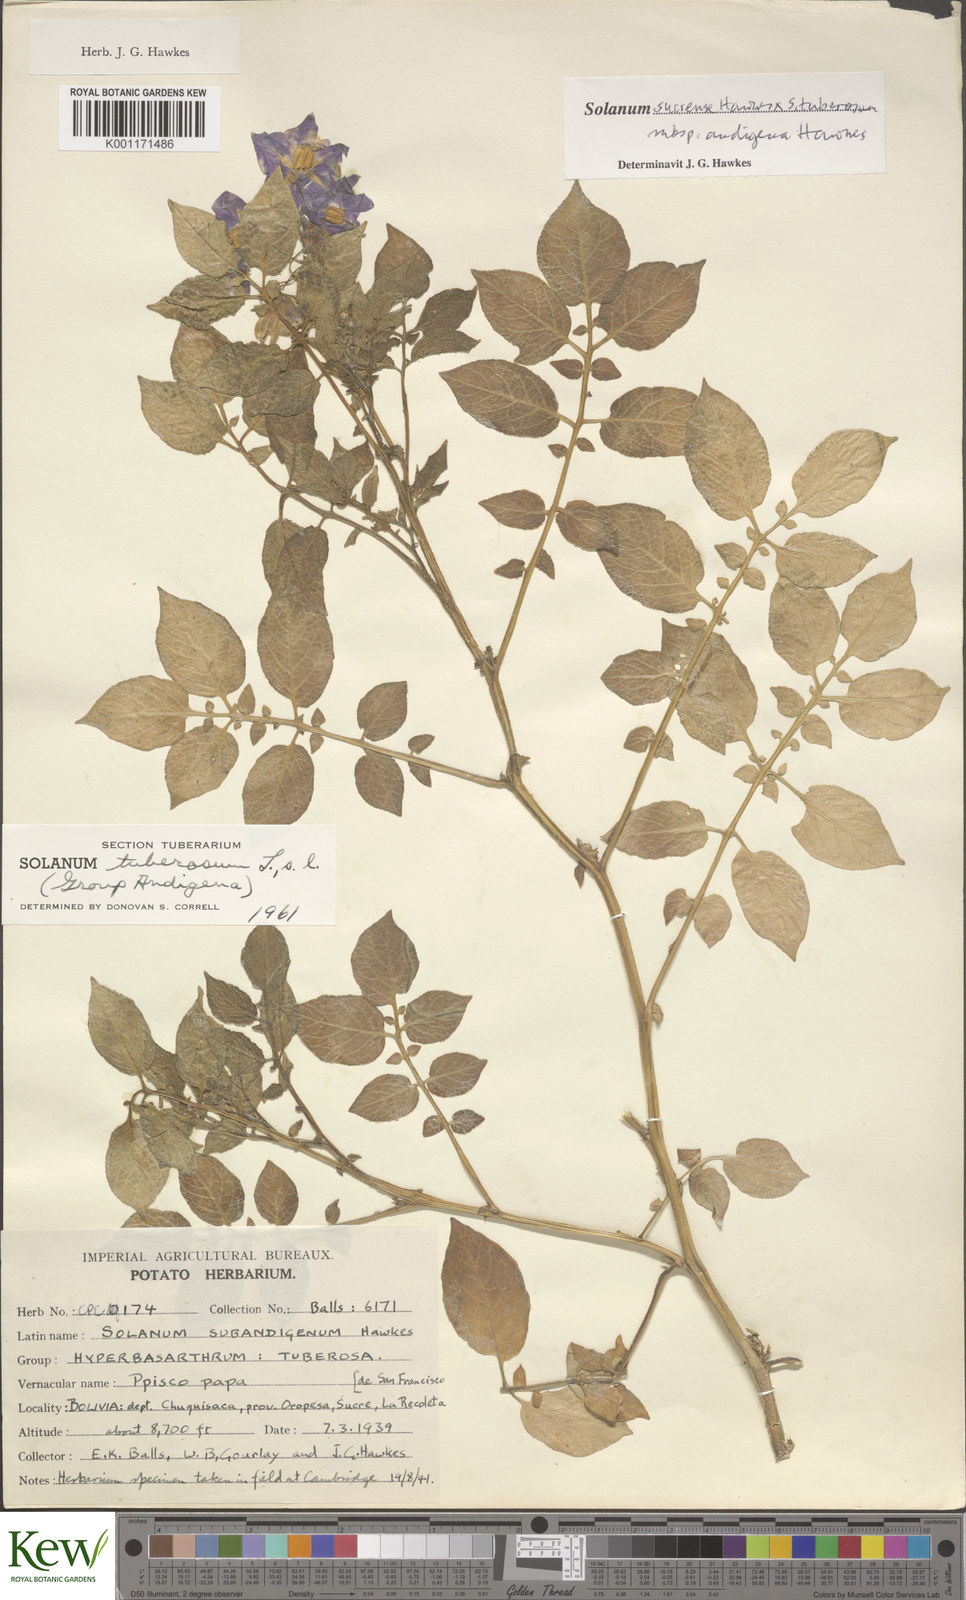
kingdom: Plantae
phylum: Tracheophyta
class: Magnoliopsida
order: Solanales
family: Solanaceae
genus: Solanum
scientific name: Solanum tuberosum
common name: Potato
